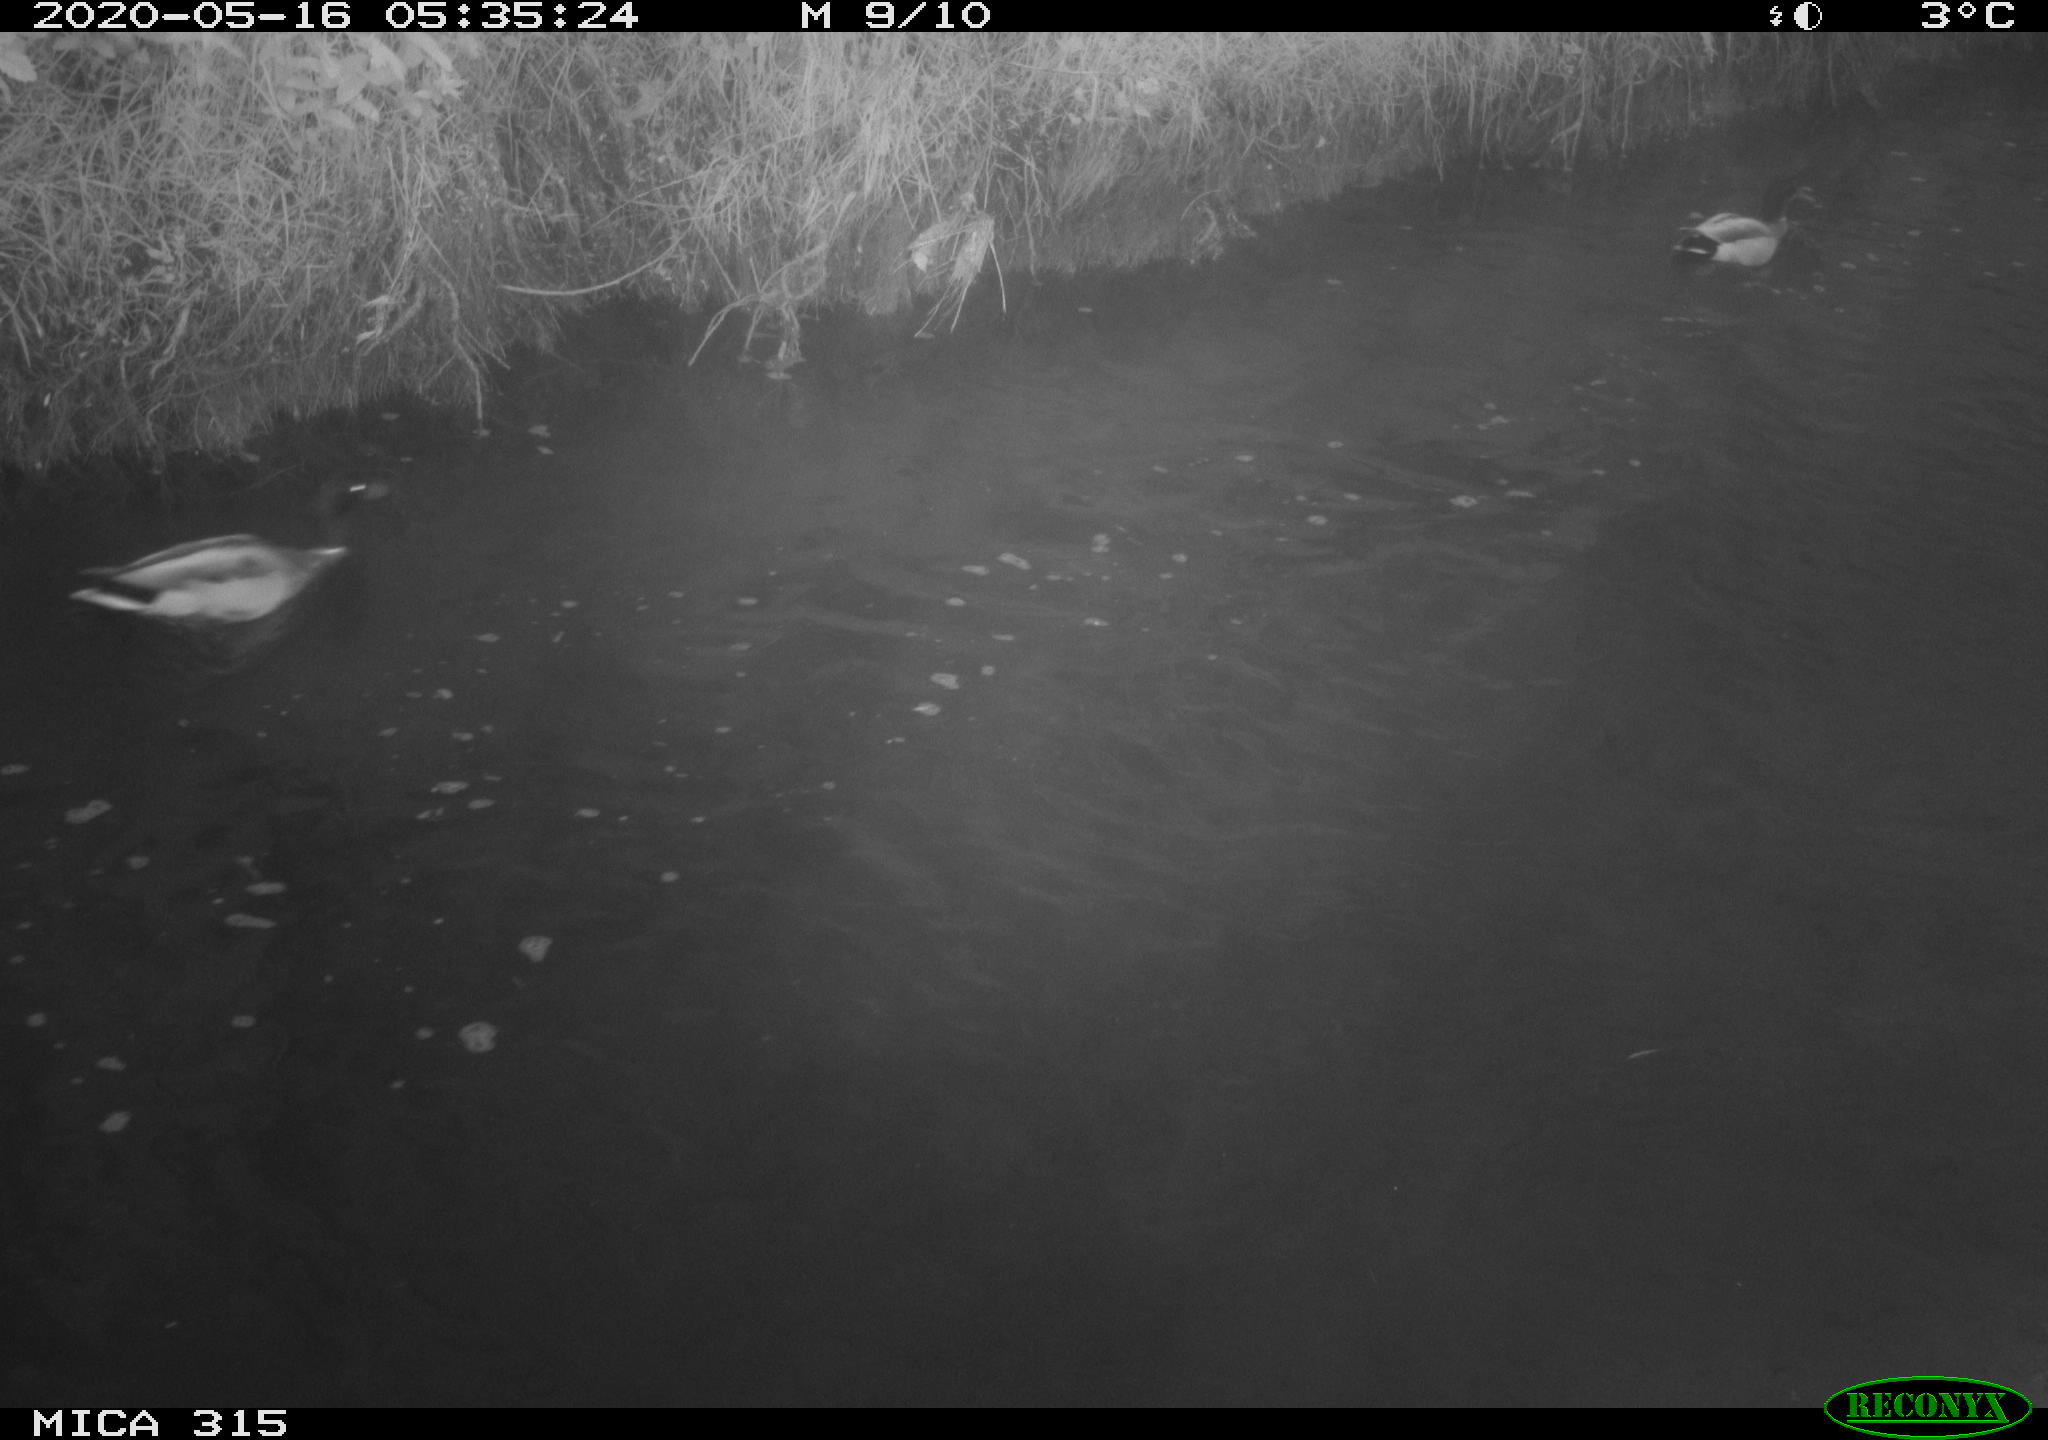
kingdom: Animalia
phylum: Chordata
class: Aves
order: Anseriformes
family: Anatidae
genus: Anas
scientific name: Anas platyrhynchos
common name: Mallard
